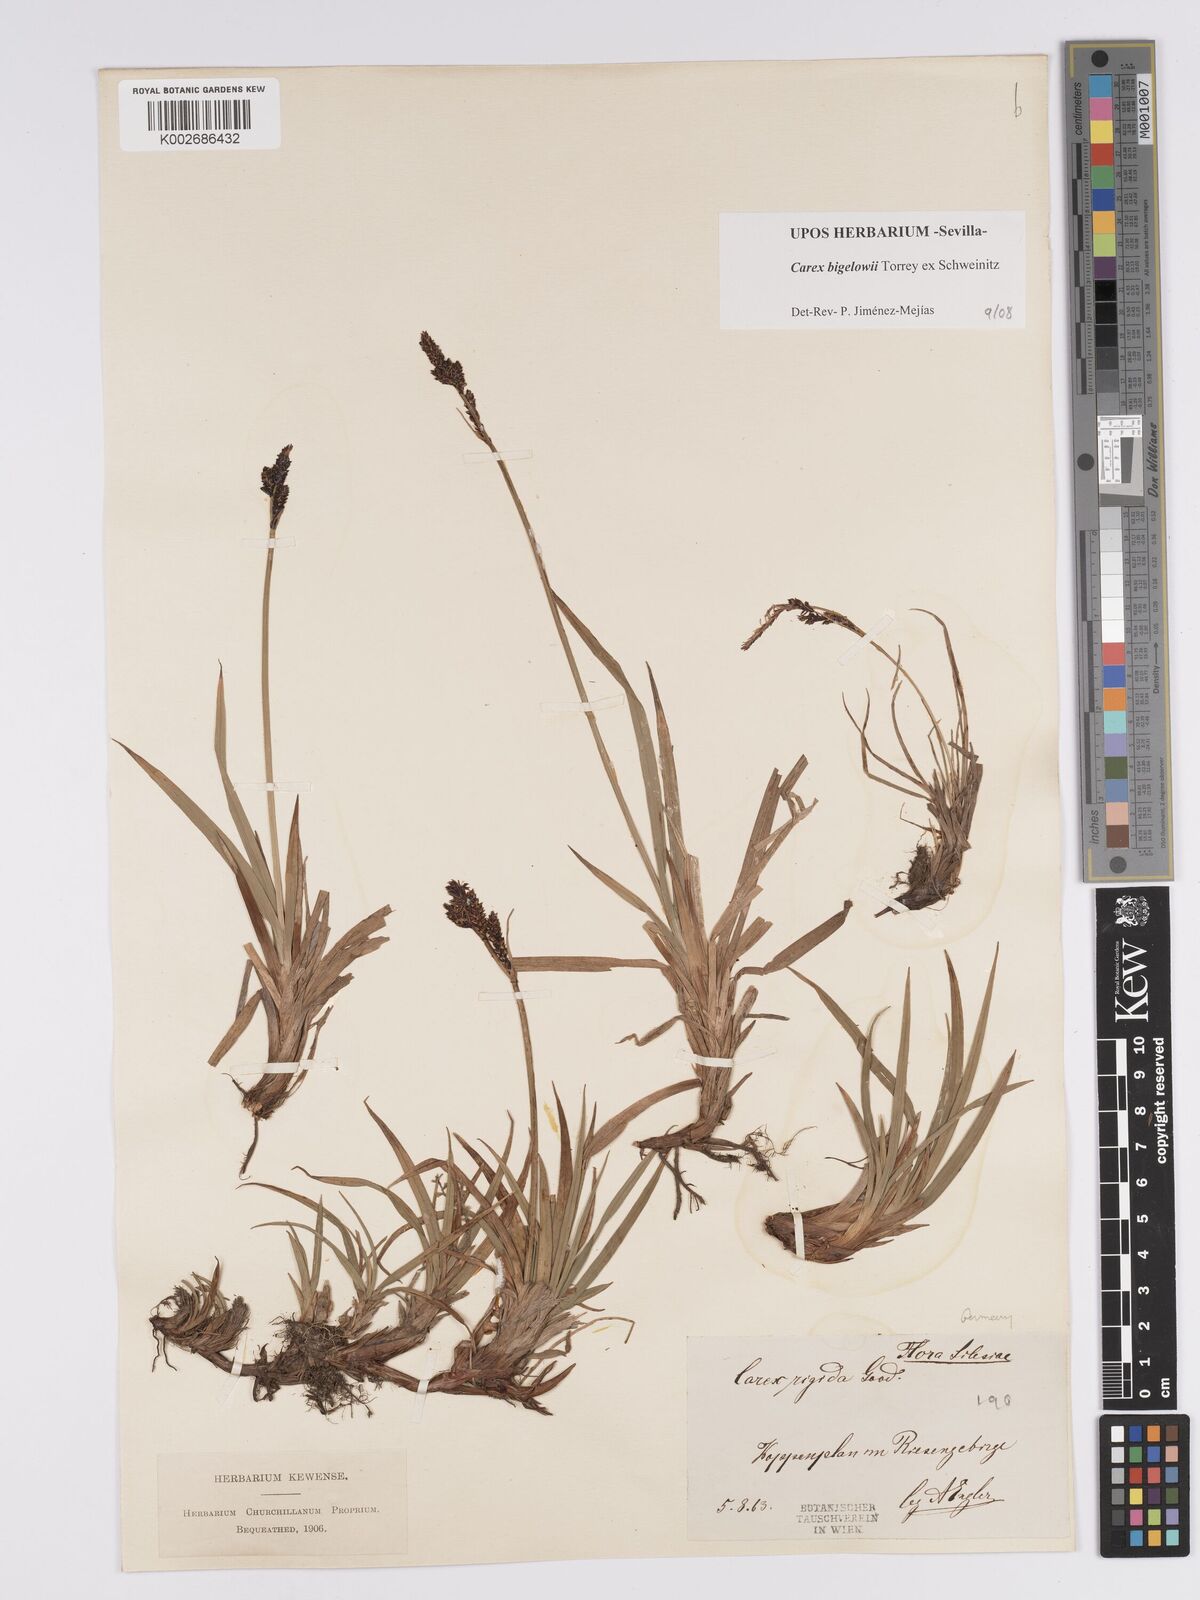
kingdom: Plantae
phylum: Tracheophyta
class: Liliopsida
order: Poales
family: Cyperaceae
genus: Carex
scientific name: Carex bigelowii
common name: Stiff sedge
